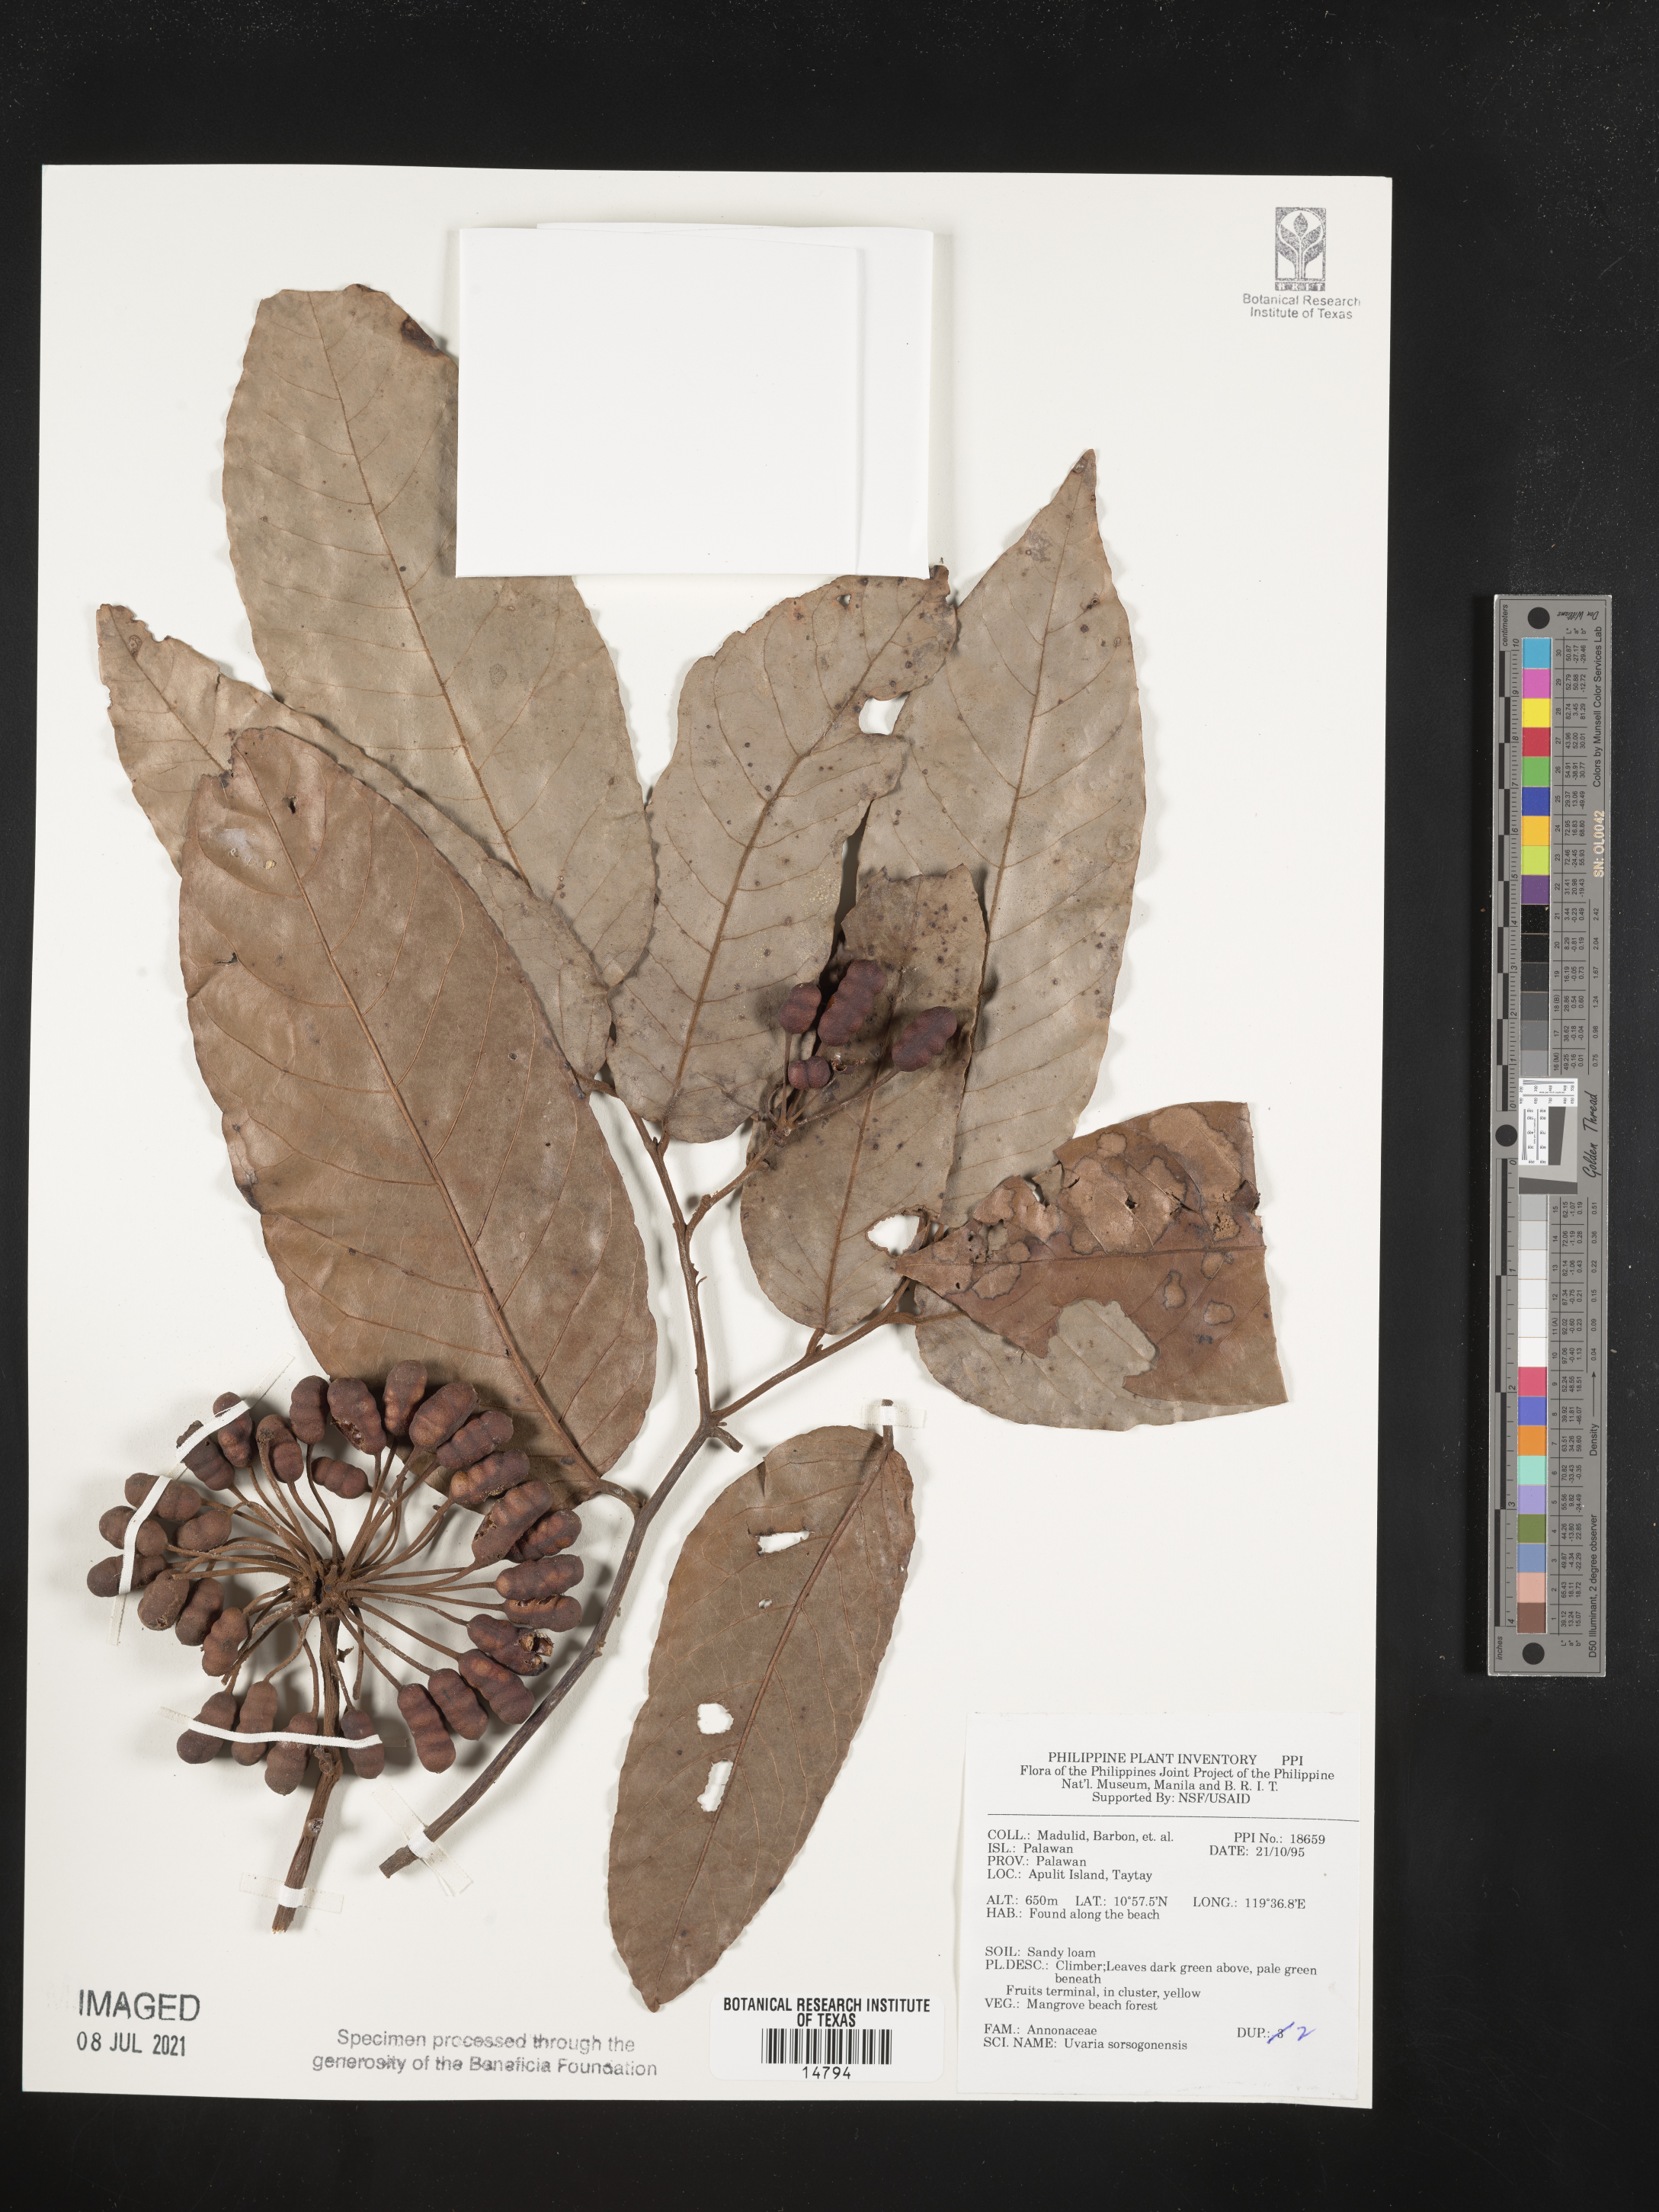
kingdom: Plantae
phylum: Tracheophyta
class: Magnoliopsida
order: Magnoliales
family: Annonaceae
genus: Uvaria
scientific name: Uvaria littoralis
